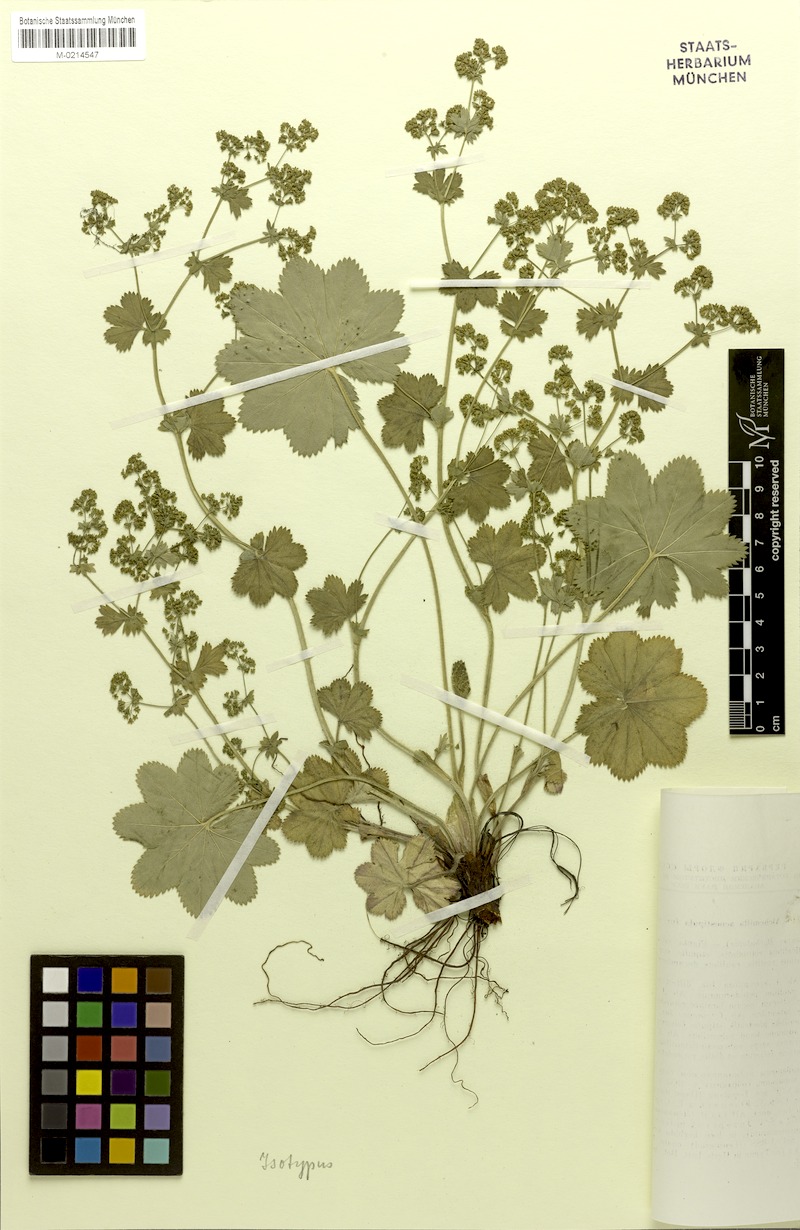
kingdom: Plantae
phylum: Tracheophyta
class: Magnoliopsida
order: Rosales
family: Rosaceae
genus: Alchemilla
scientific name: Alchemilla aenostipula
